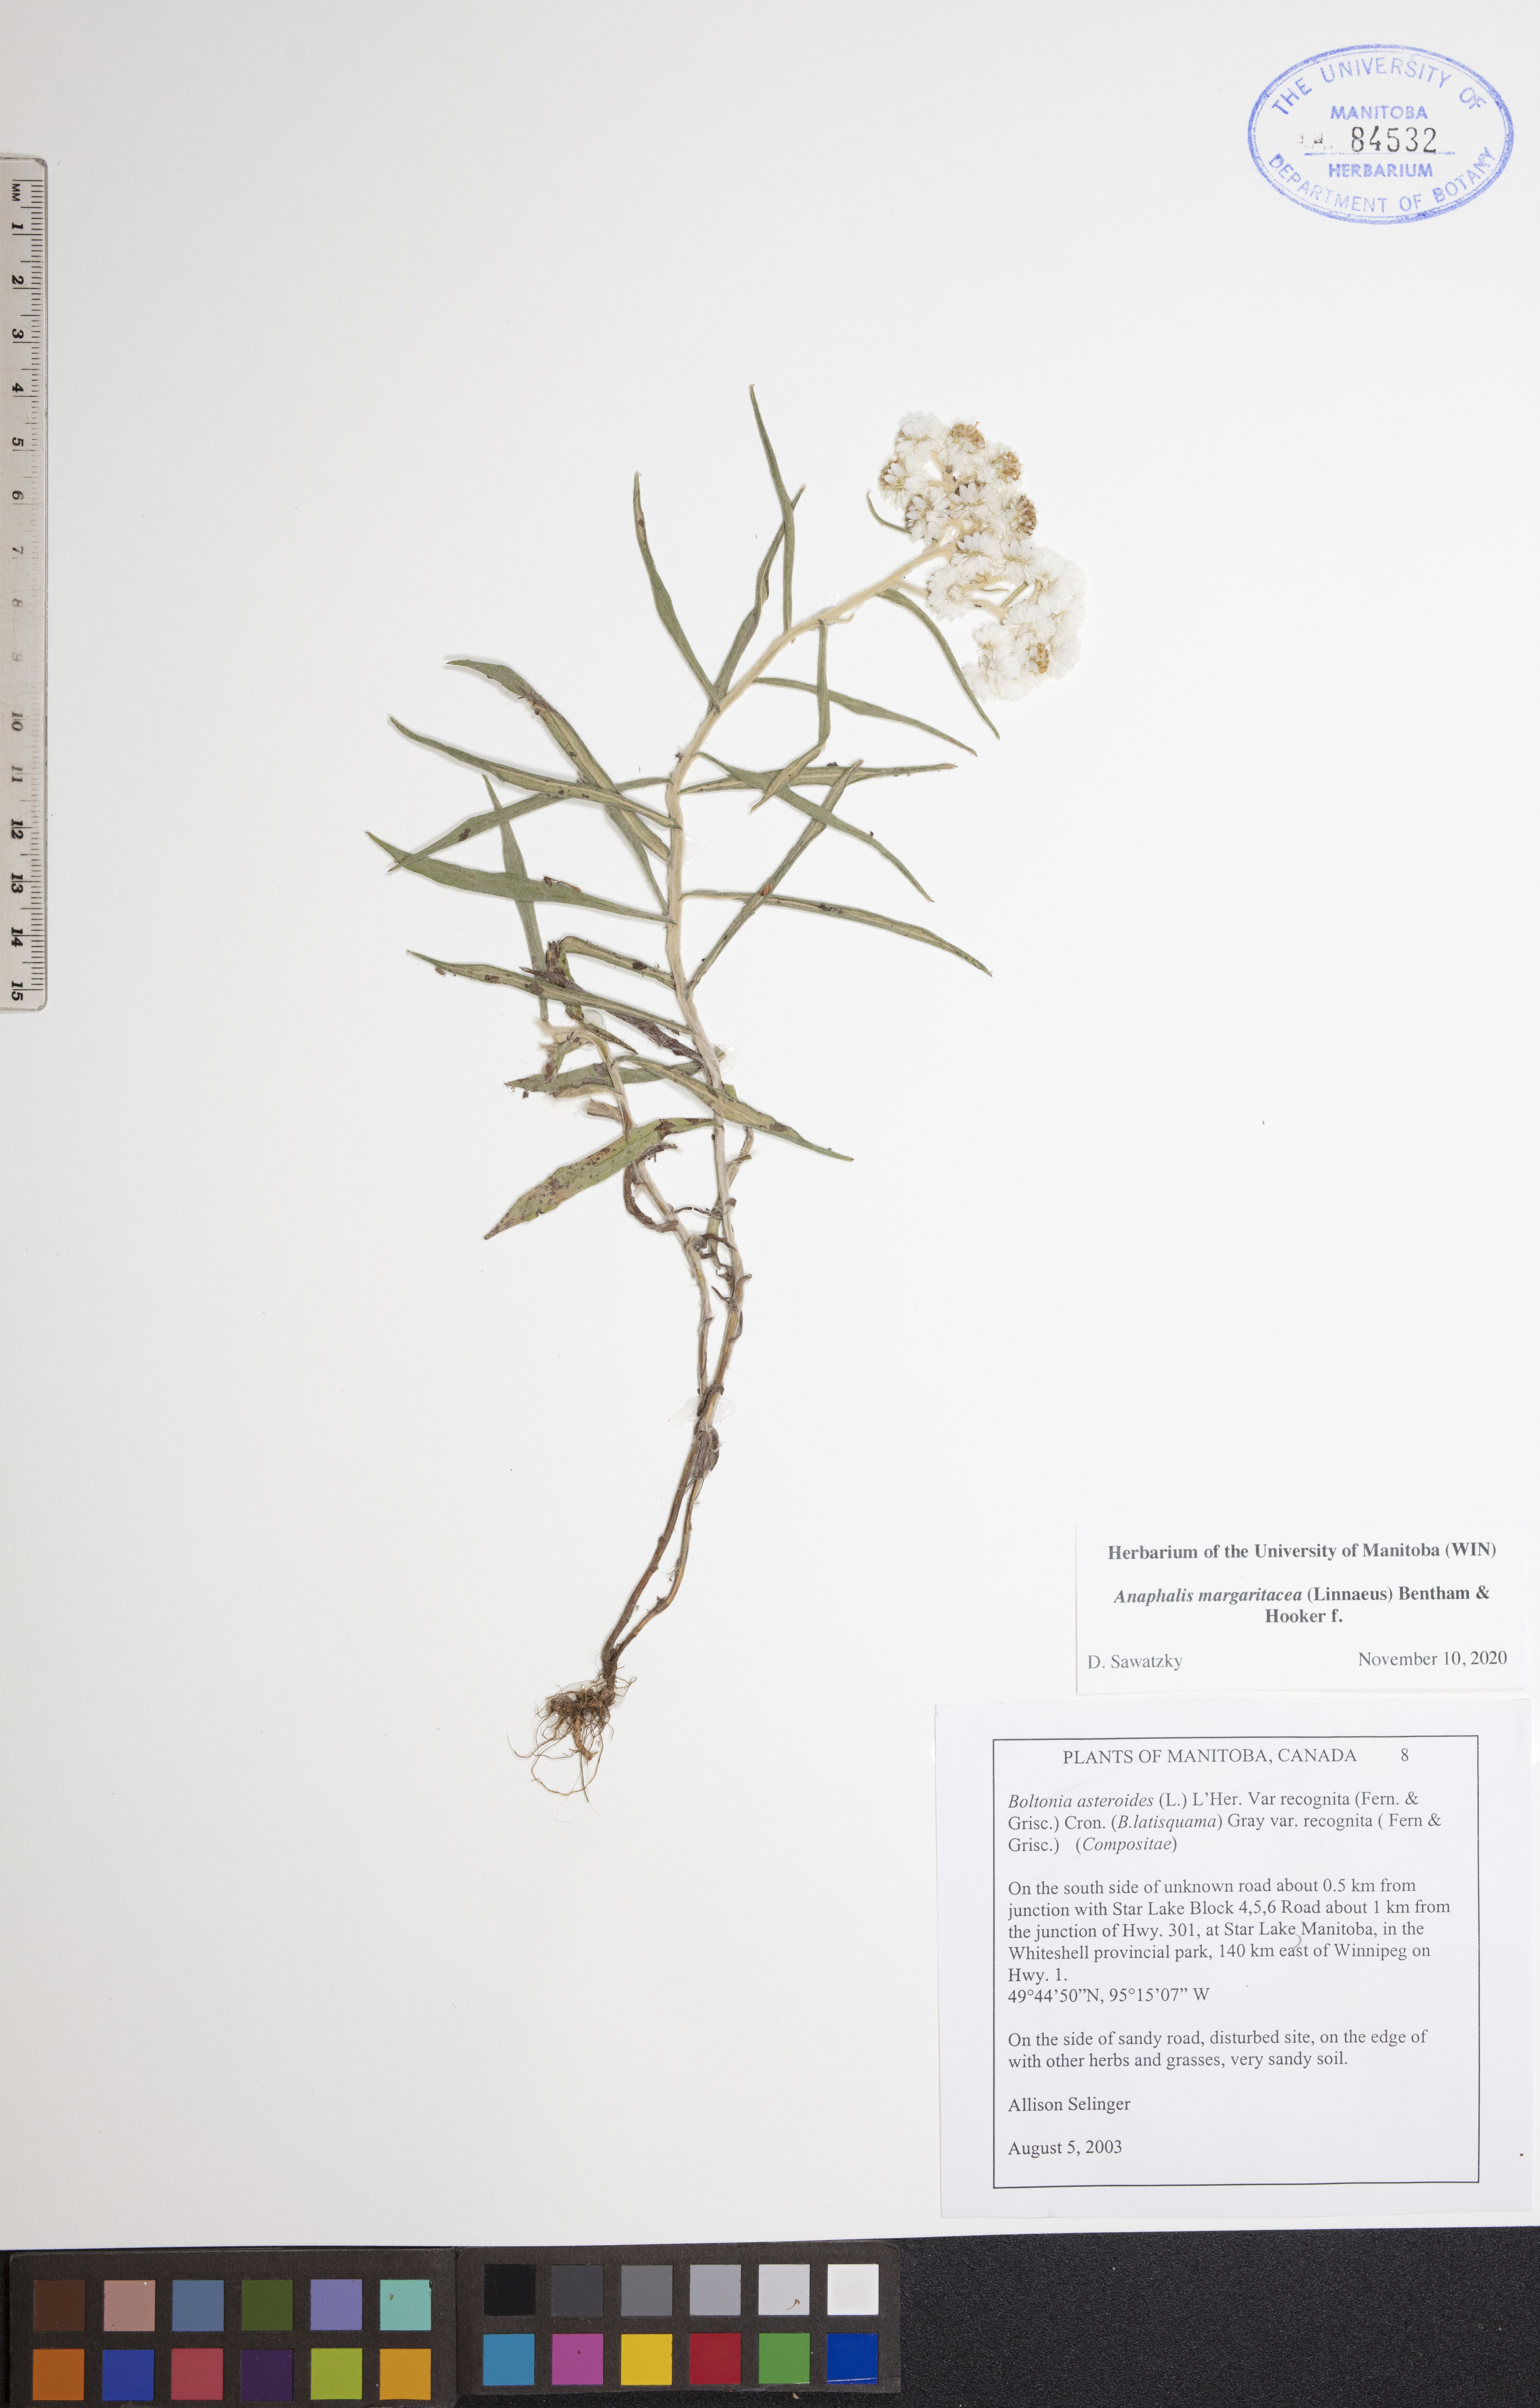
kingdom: Plantae
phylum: Tracheophyta
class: Magnoliopsida
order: Asterales
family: Asteraceae
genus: Anaphalis
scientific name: Anaphalis margaritacea
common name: Pearly everlasting
